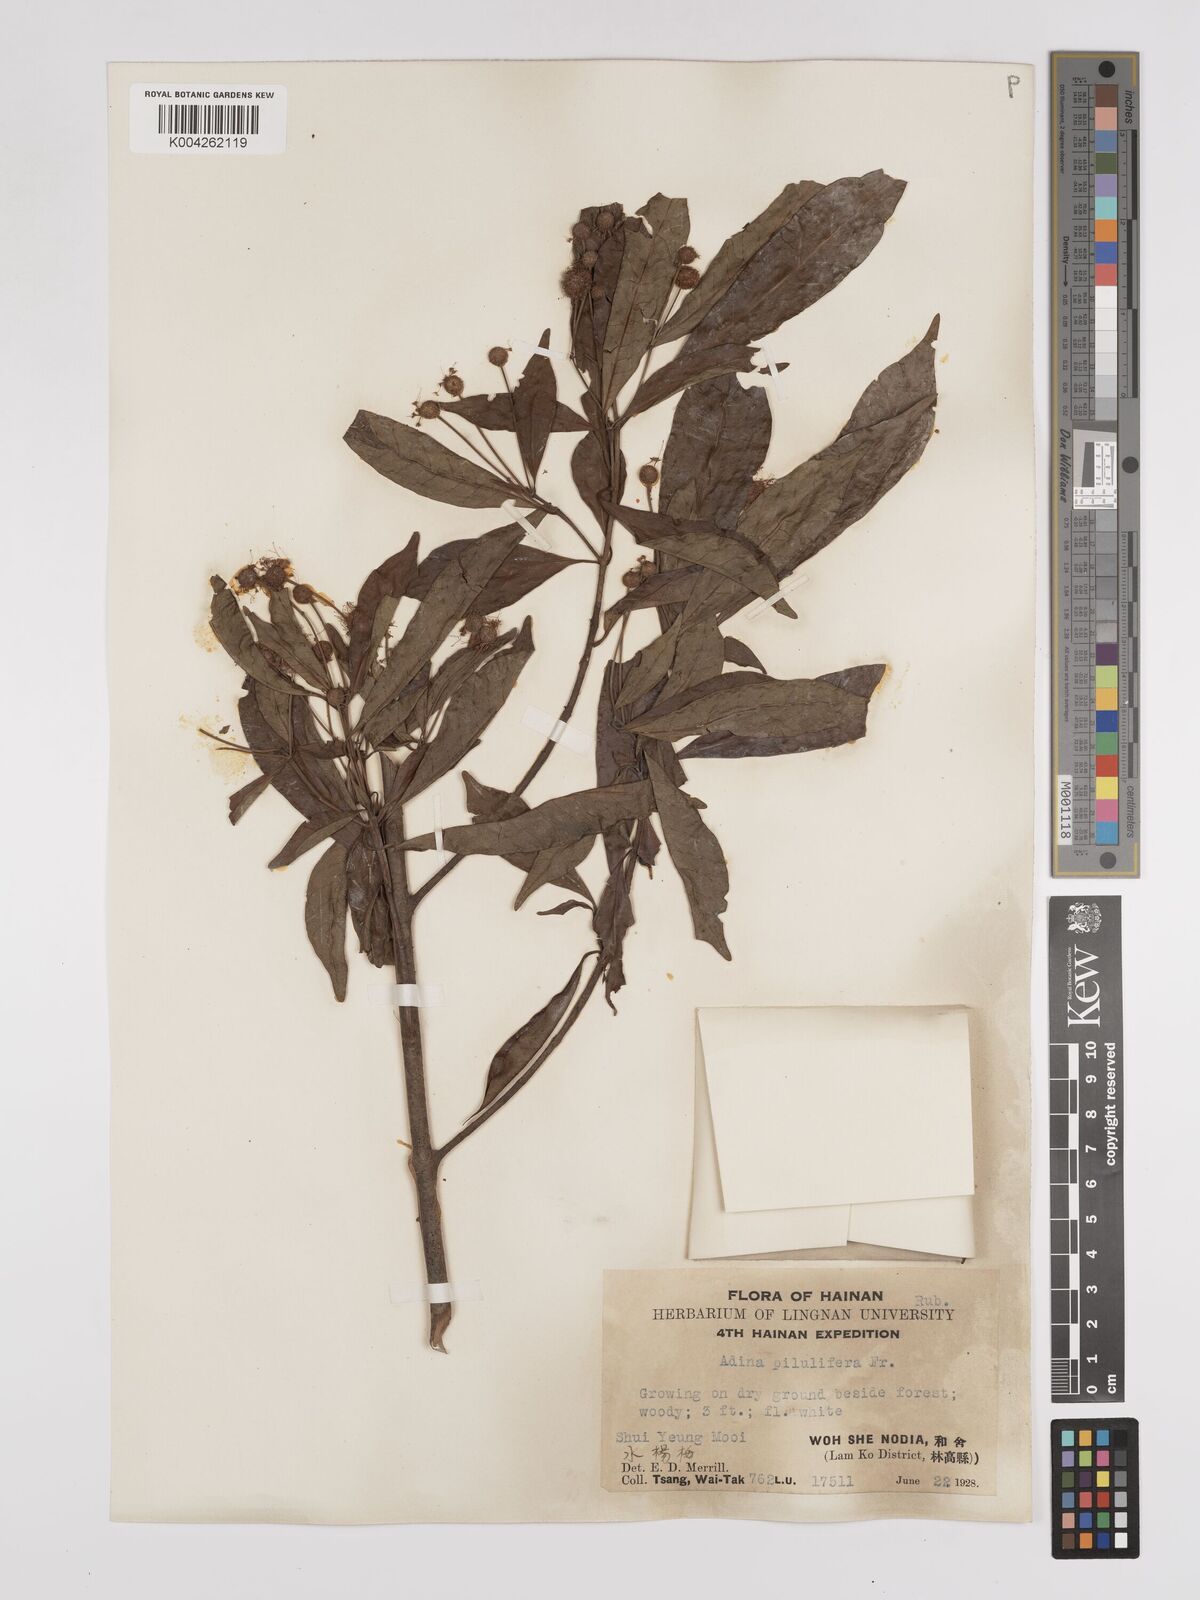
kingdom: Plantae
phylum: Tracheophyta
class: Magnoliopsida
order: Gentianales
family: Rubiaceae
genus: Adina
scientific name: Adina pilulifera
